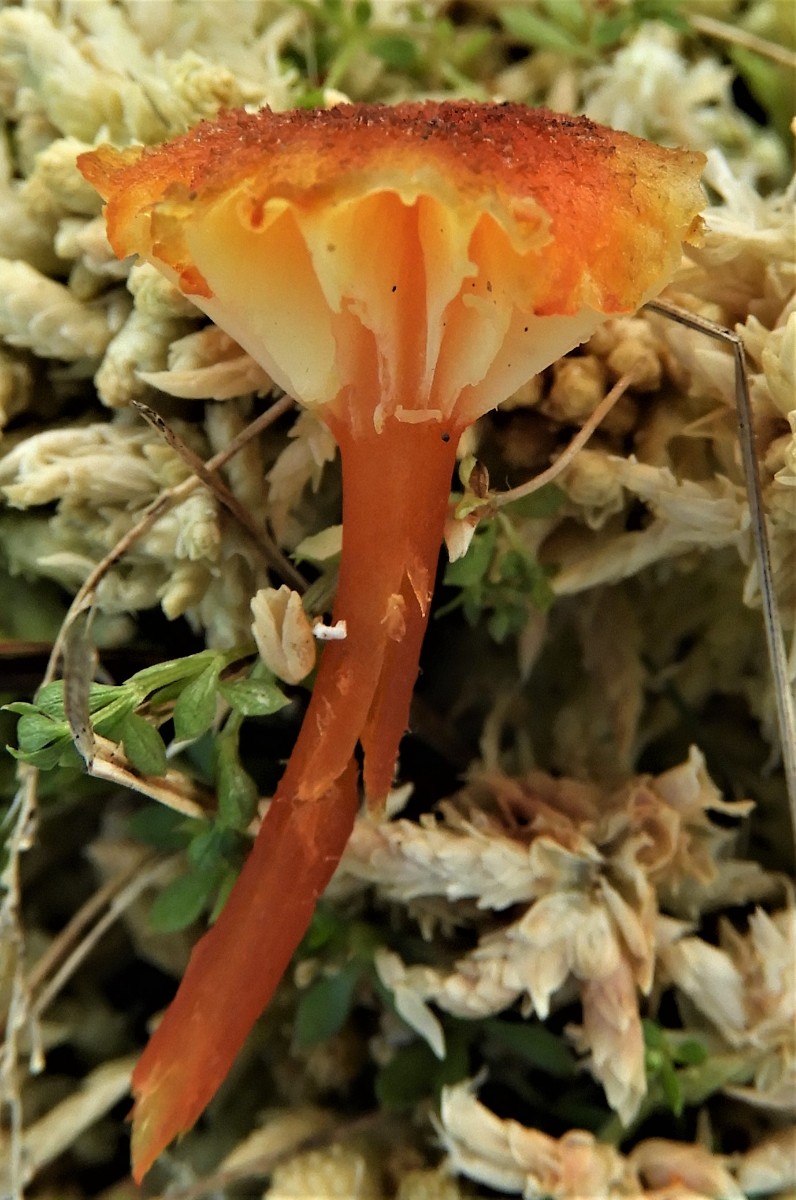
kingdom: Fungi
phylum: Basidiomycota
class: Agaricomycetes
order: Agaricales
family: Hygrophoraceae
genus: Hygrocybe
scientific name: Hygrocybe coccineocrenata
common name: tørvemos-vokshat
